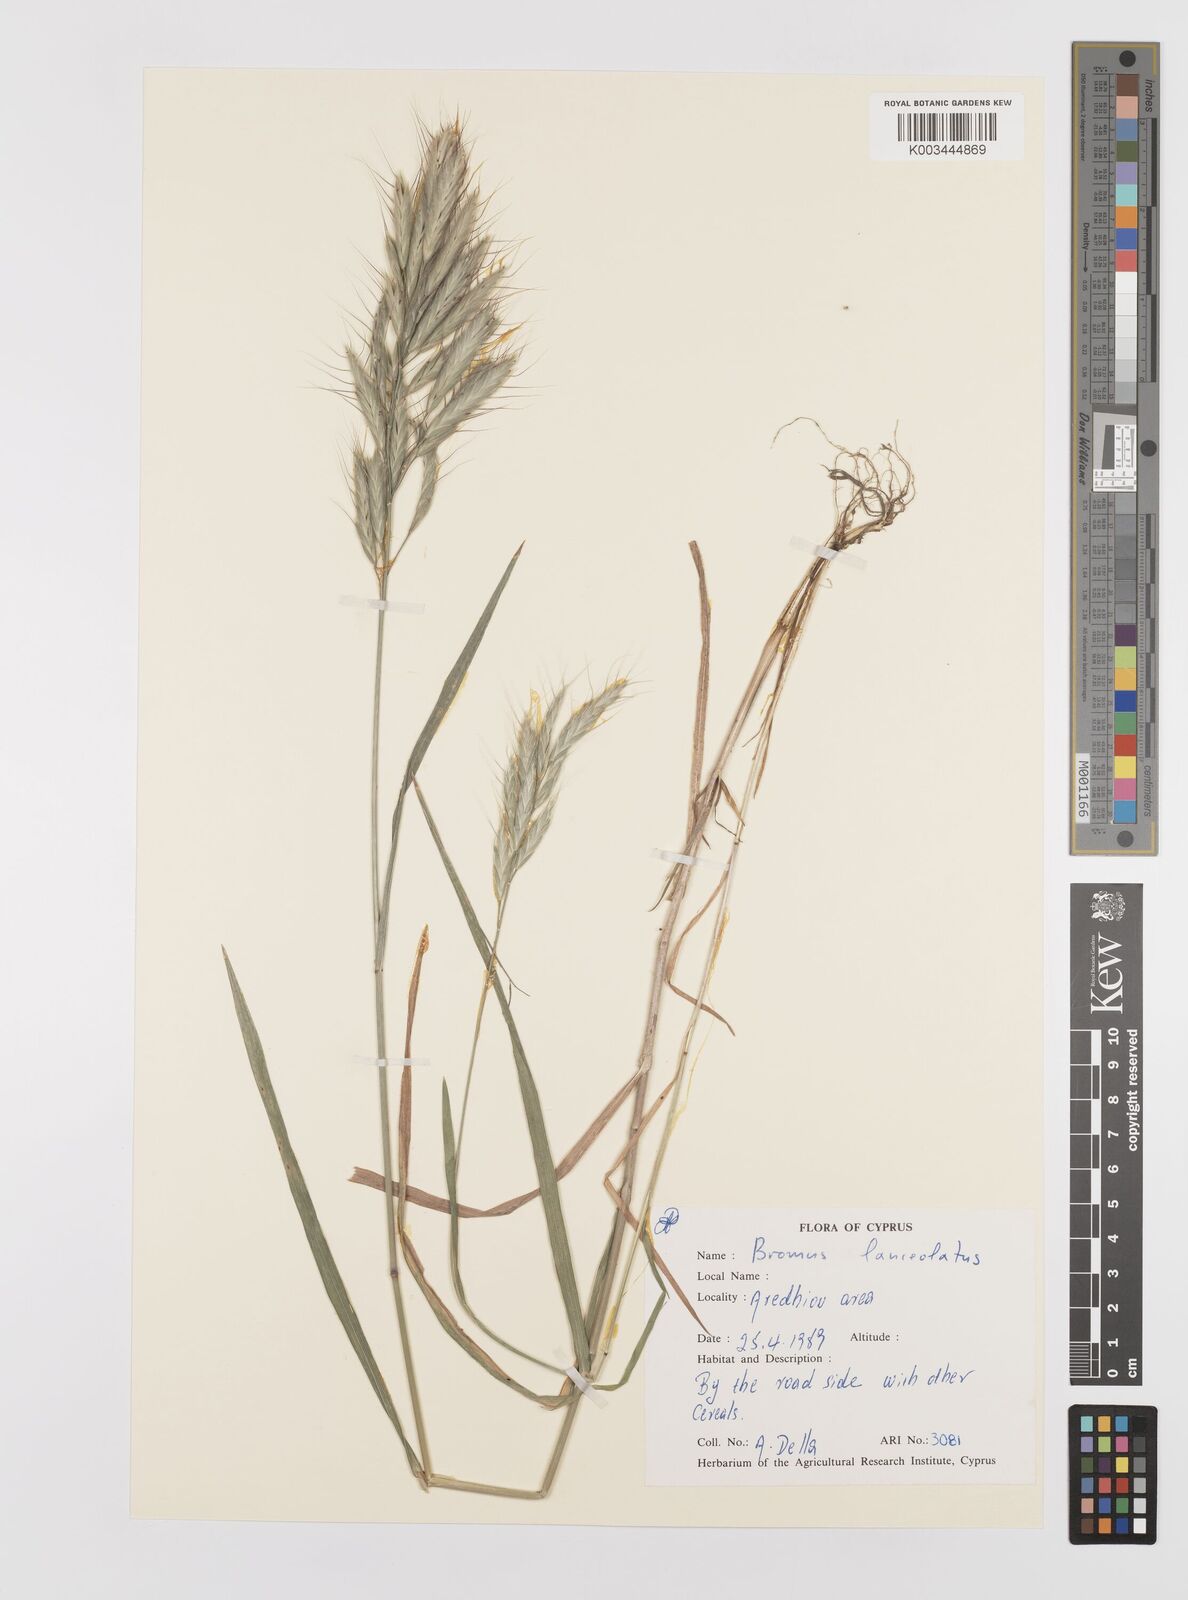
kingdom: Plantae
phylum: Tracheophyta
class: Liliopsida
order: Poales
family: Poaceae
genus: Bromus
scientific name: Bromus lanceolatus
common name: Mediterranean brome
